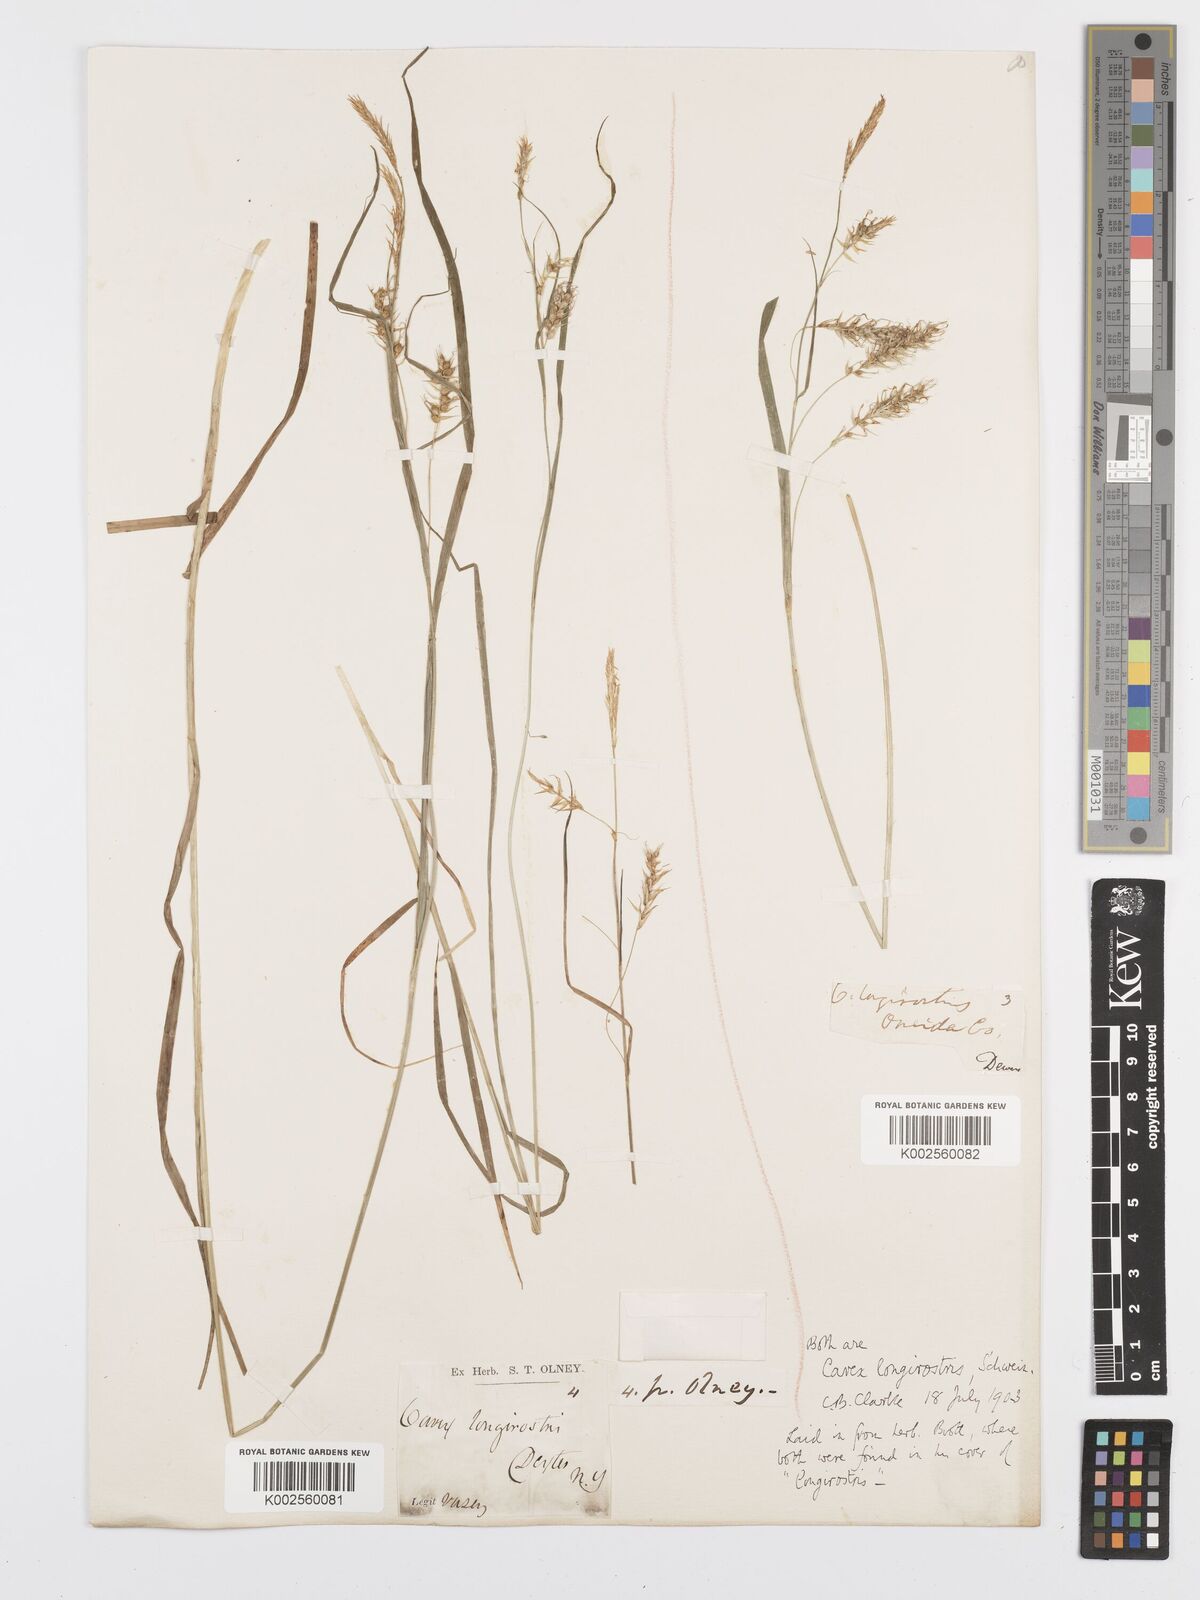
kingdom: Plantae
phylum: Tracheophyta
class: Liliopsida
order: Poales
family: Cyperaceae
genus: Carex
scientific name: Carex sprengelii
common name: Long-beaked sedge
